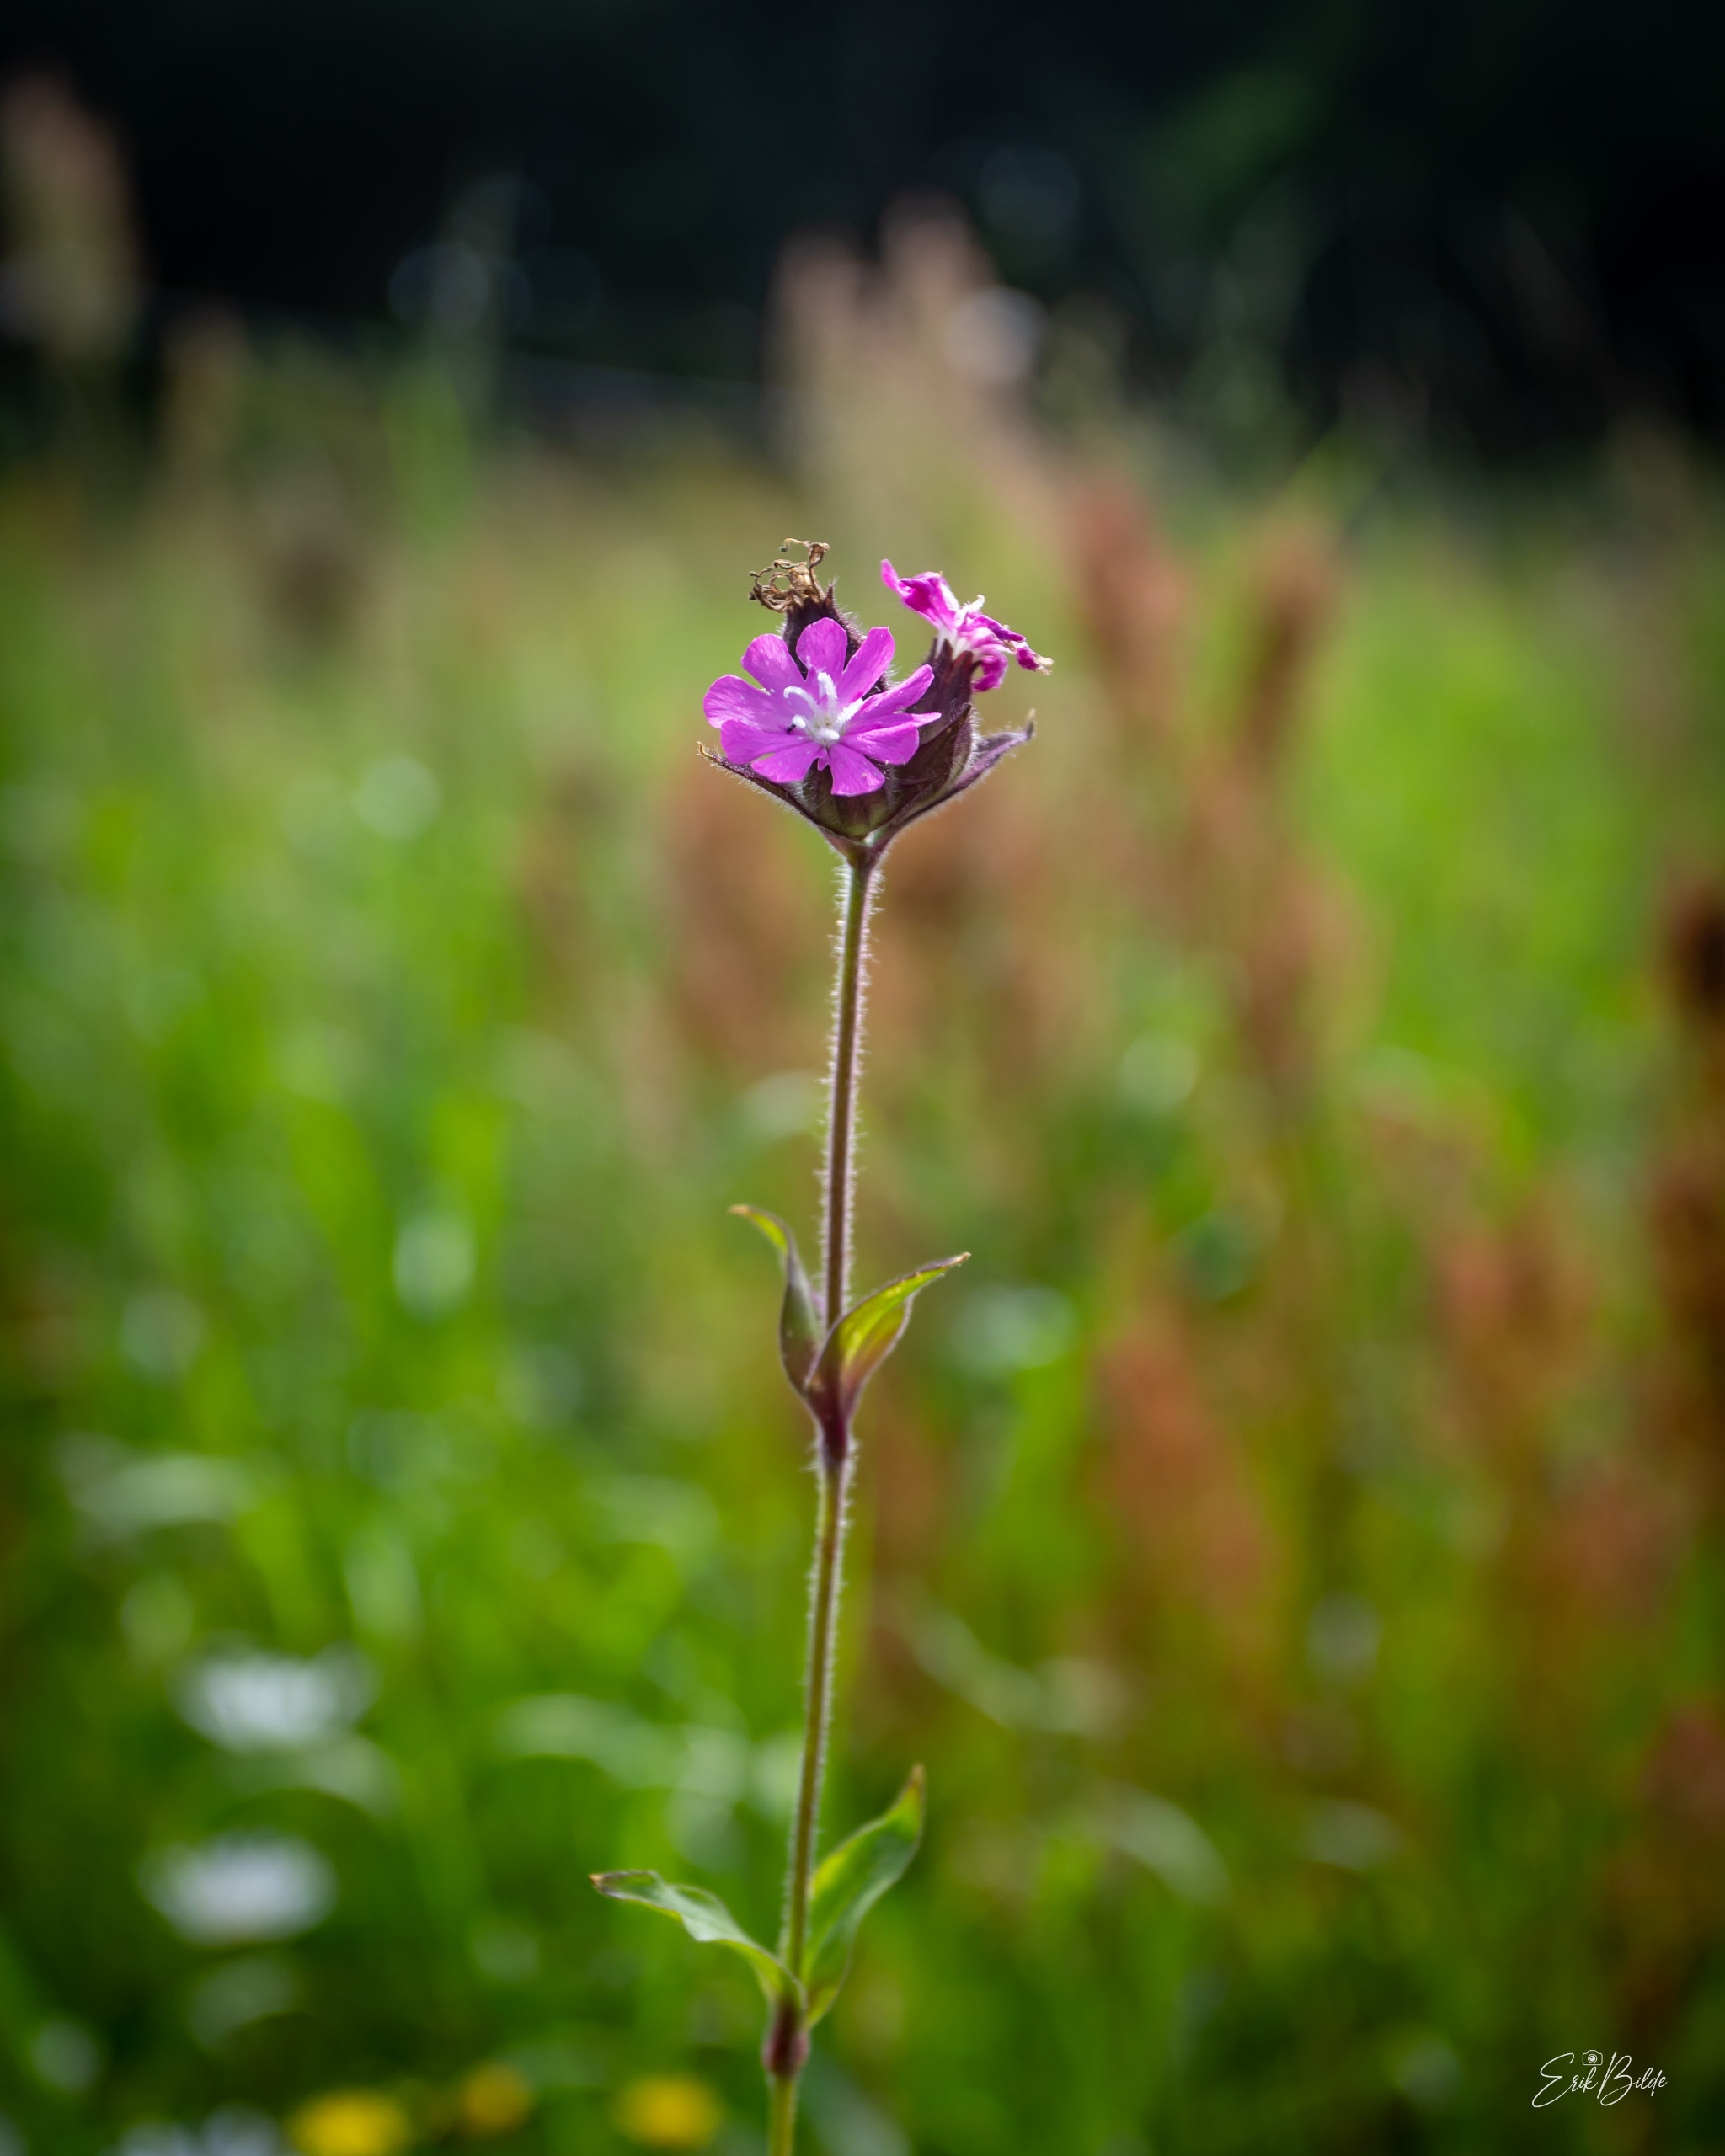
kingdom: Plantae
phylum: Tracheophyta
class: Magnoliopsida
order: Caryophyllales
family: Caryophyllaceae
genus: Silene
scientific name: Silene dioica
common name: Dagpragtstjerne
